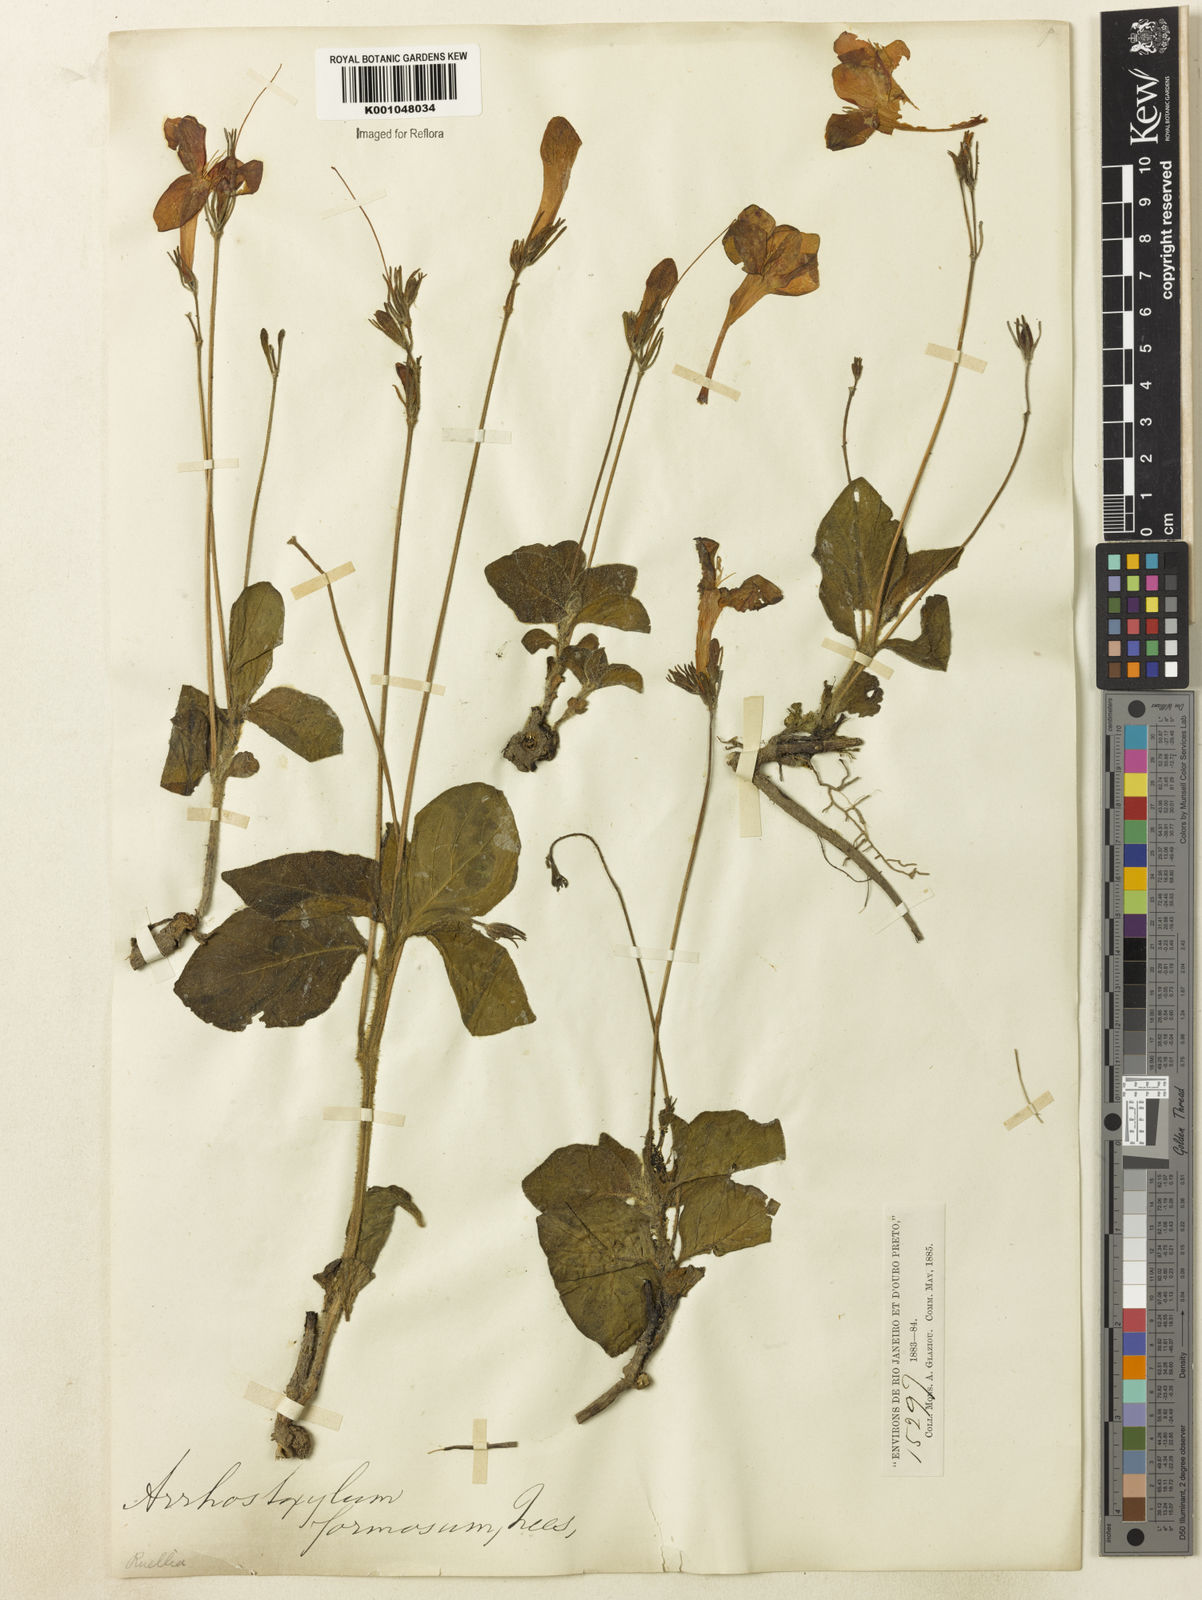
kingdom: Plantae
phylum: Tracheophyta
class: Magnoliopsida
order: Lamiales
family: Acanthaceae
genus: Ruellia
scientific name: Ruellia elegans
